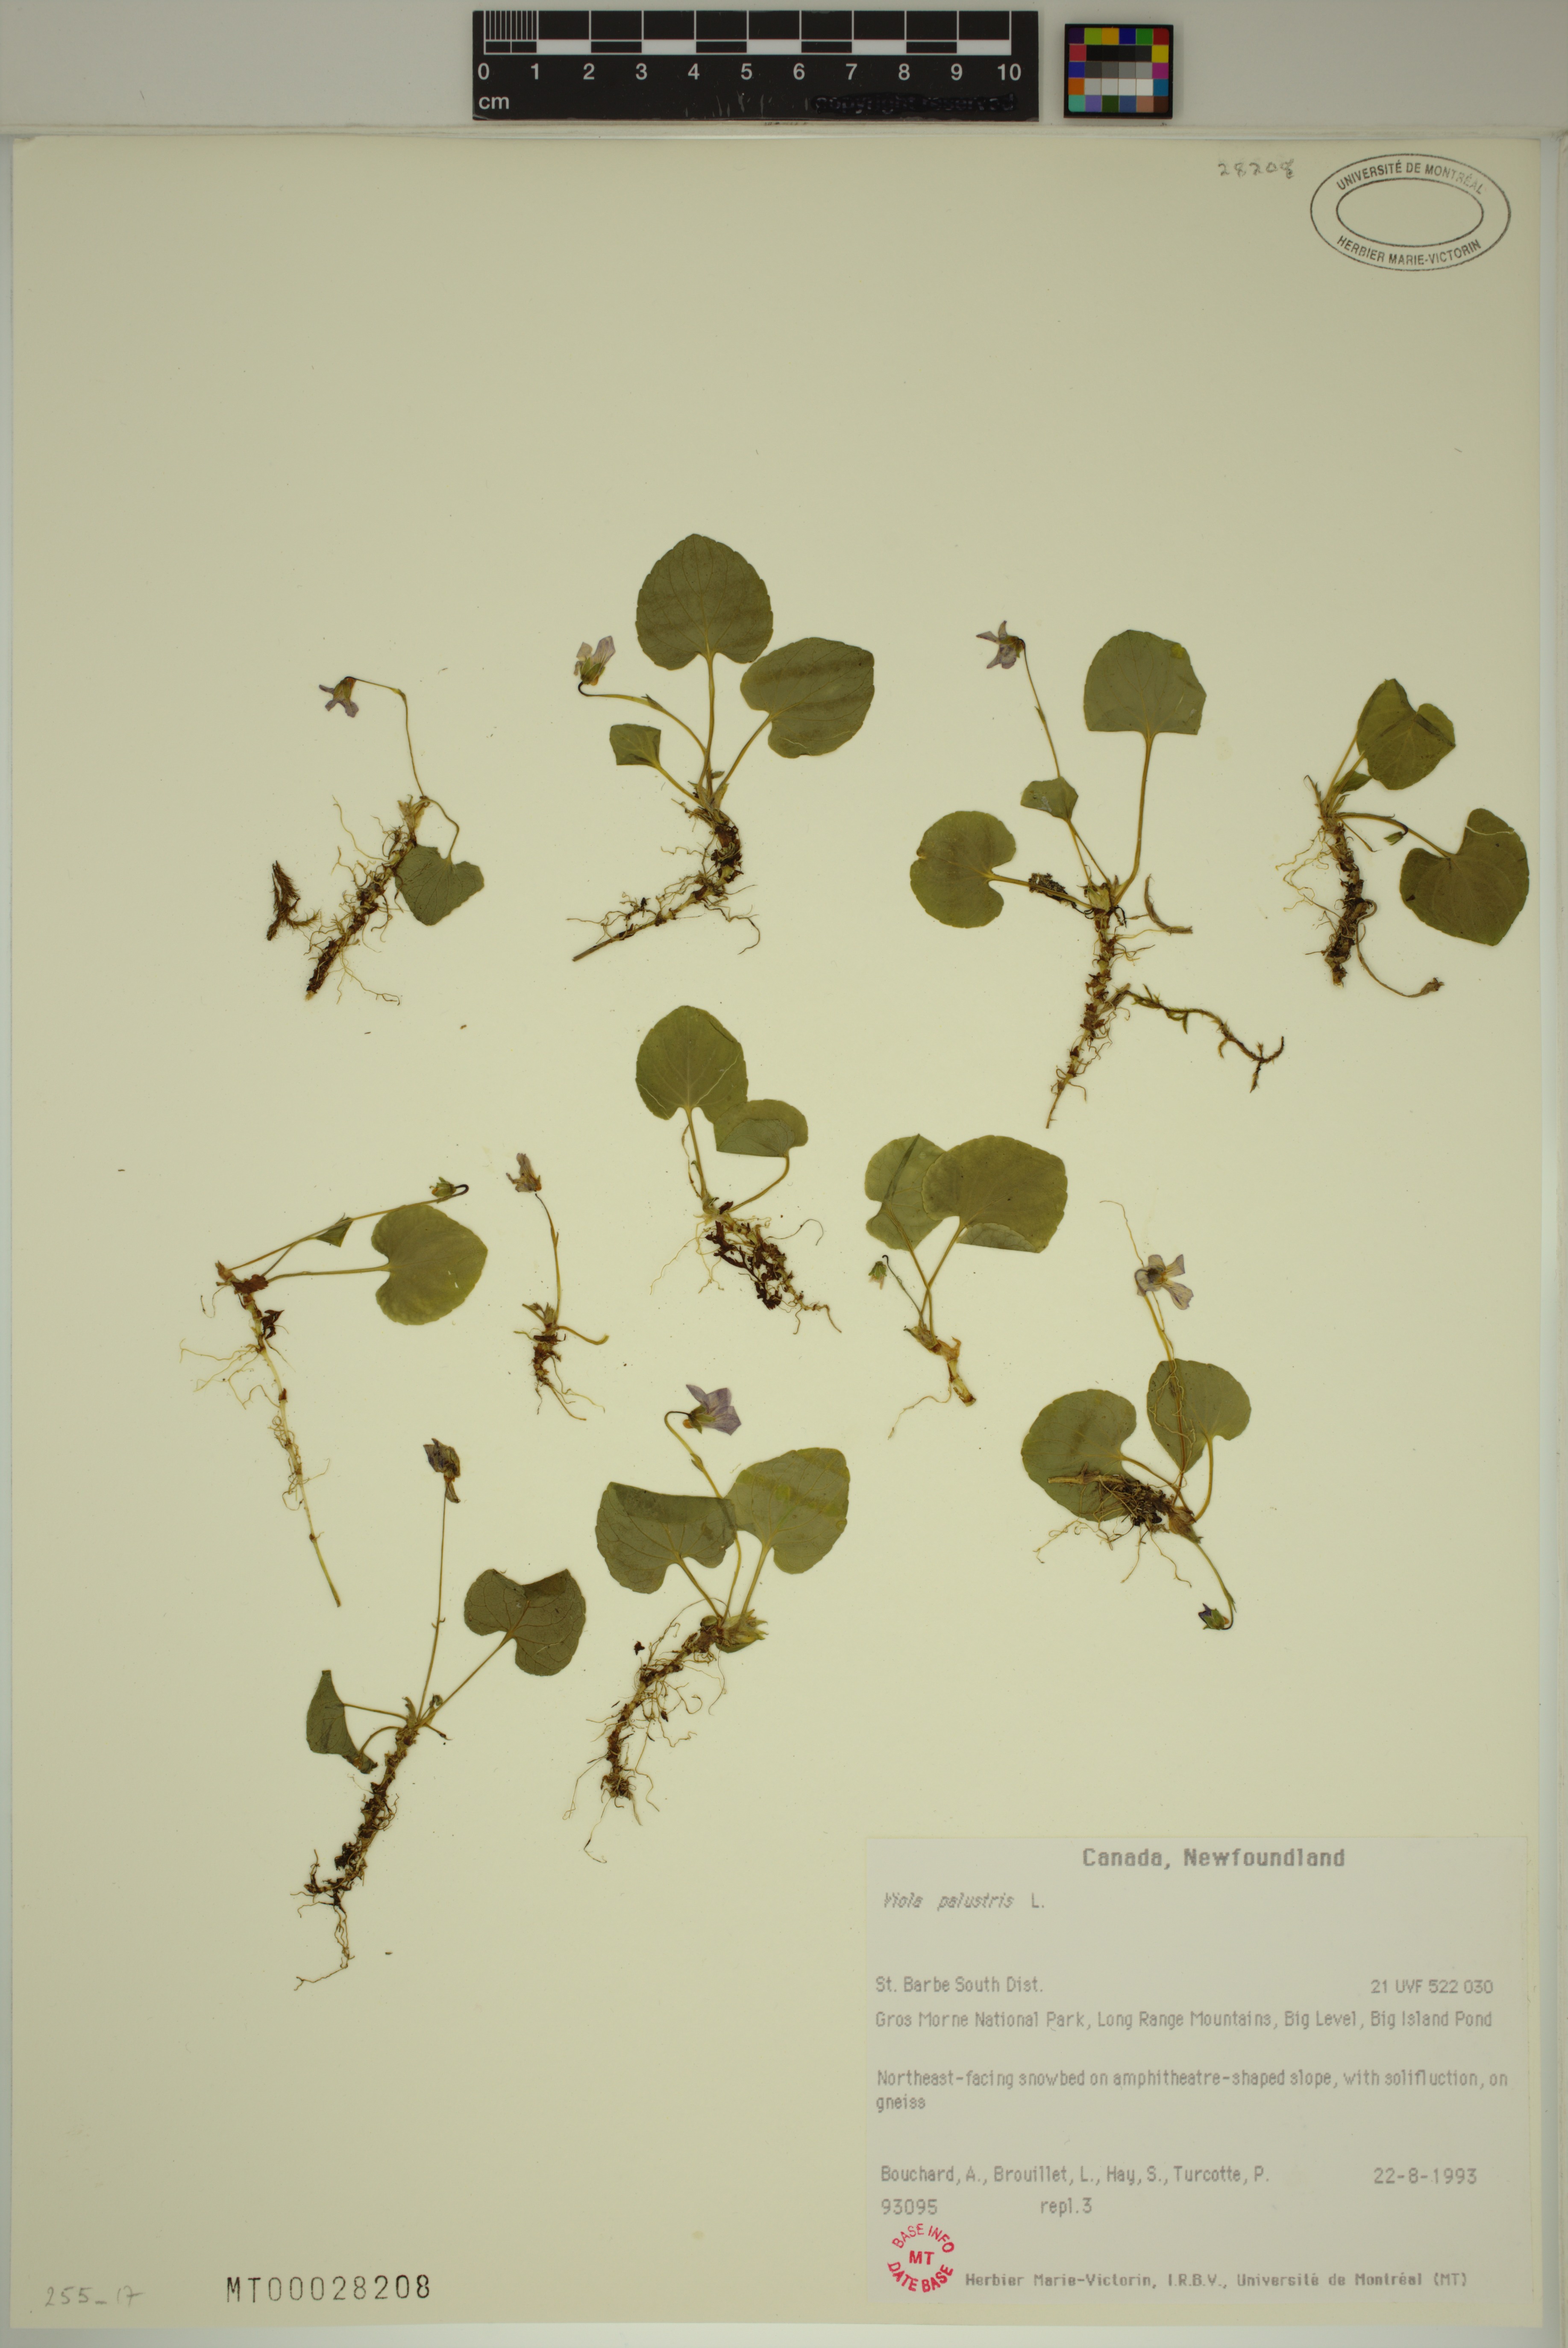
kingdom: Plantae
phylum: Tracheophyta
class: Magnoliopsida
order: Malpighiales
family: Violaceae
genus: Viola
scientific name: Viola palustris
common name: Marsh violet
